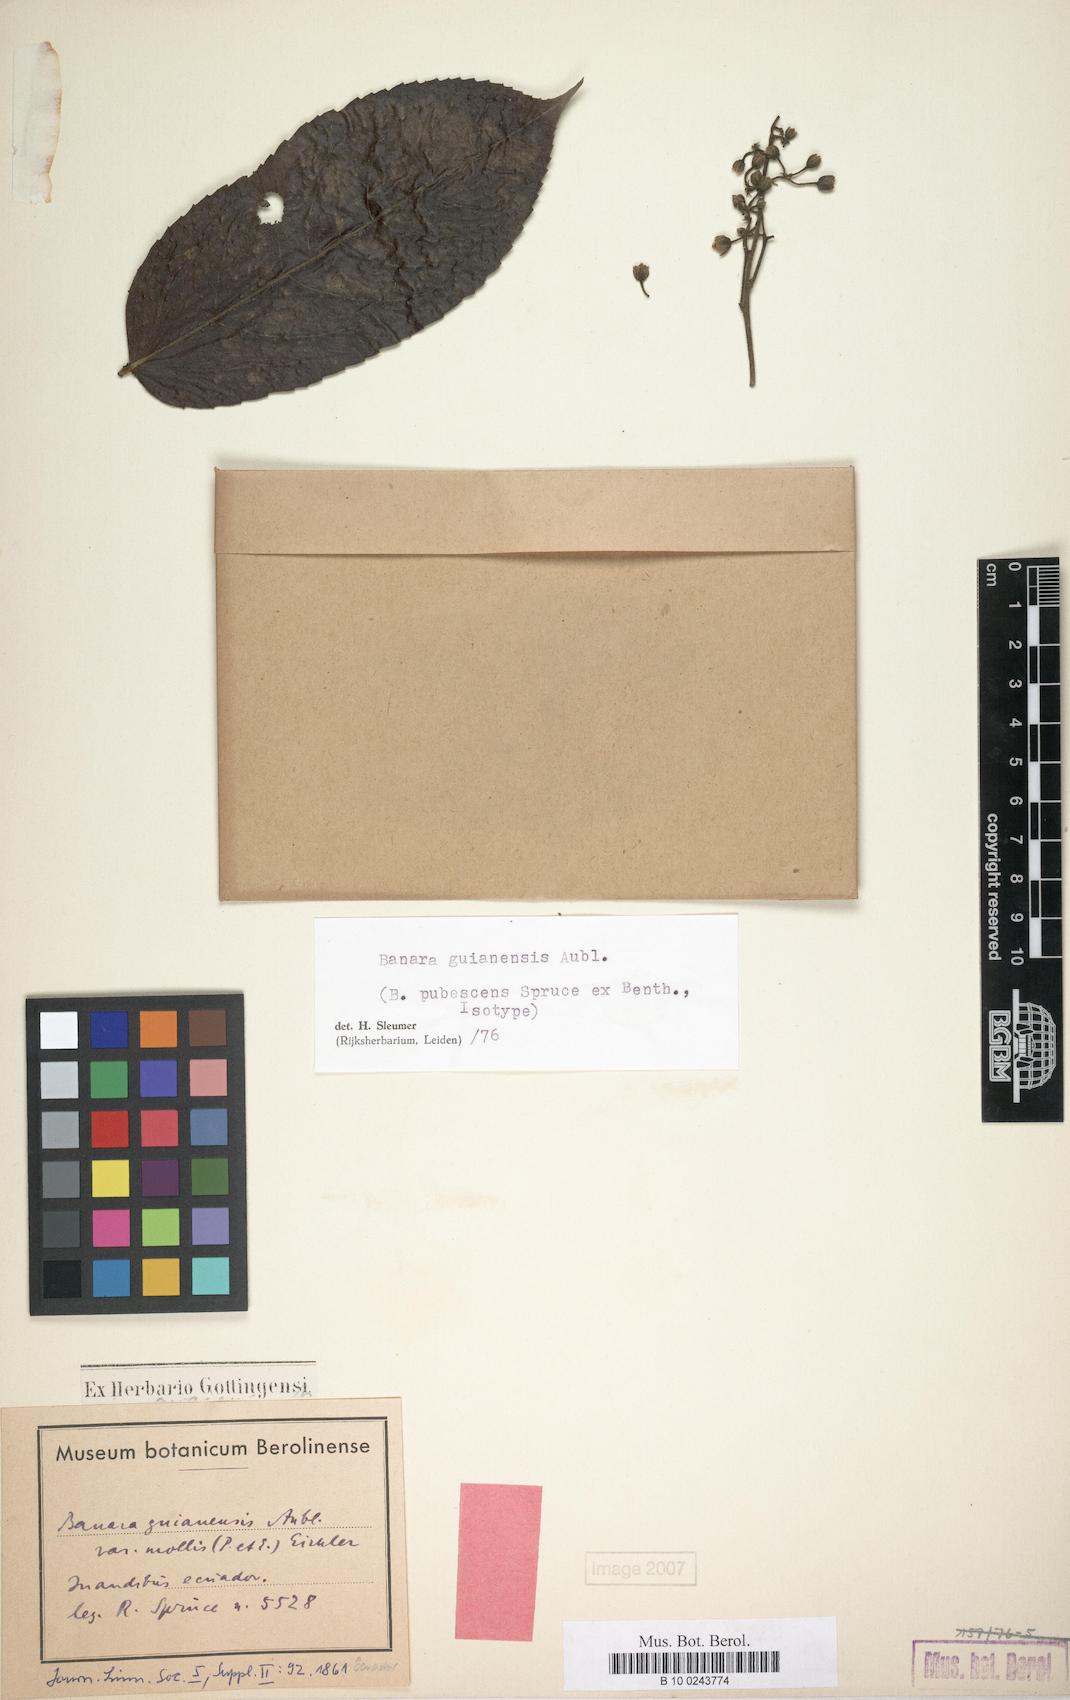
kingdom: Plantae
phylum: Tracheophyta
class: Magnoliopsida
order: Malpighiales
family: Salicaceae
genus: Banara
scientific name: Banara guianensis
